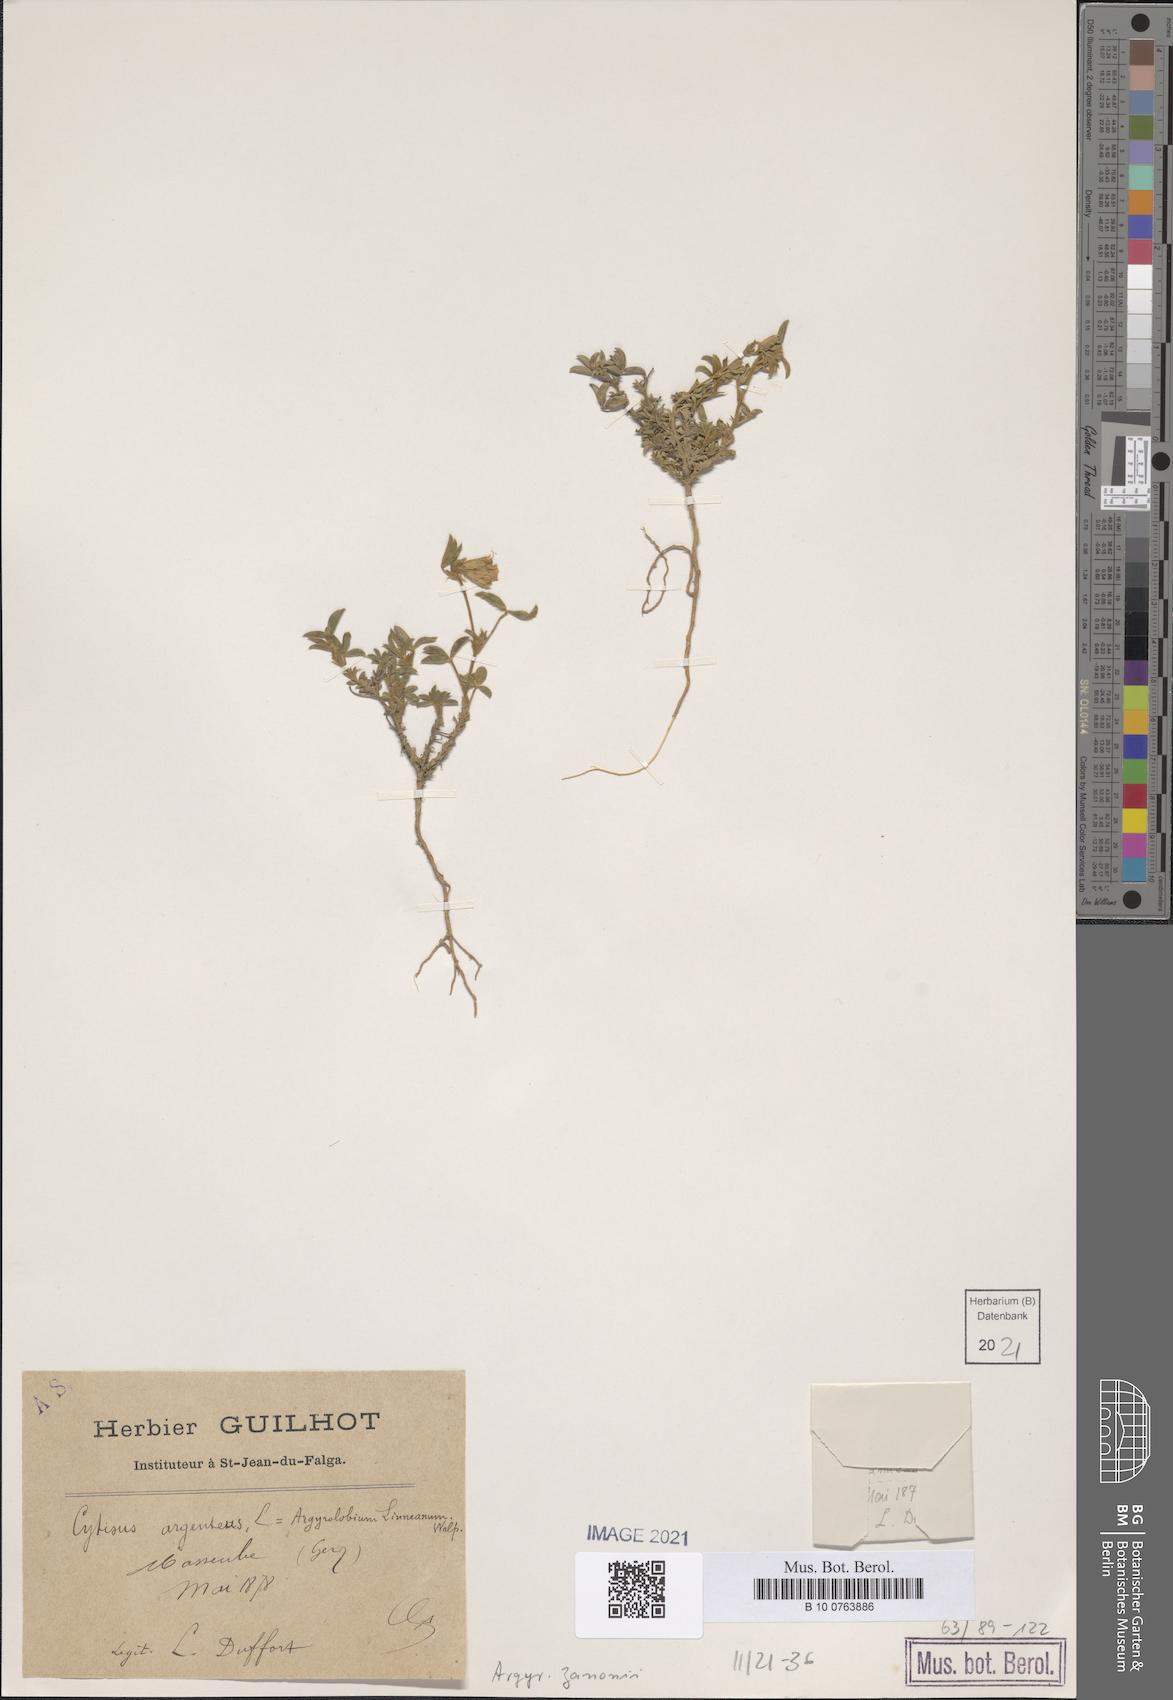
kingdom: Plantae
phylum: Tracheophyta
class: Magnoliopsida
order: Fabales
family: Fabaceae
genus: Argyrolobium
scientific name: Argyrolobium zanonii
